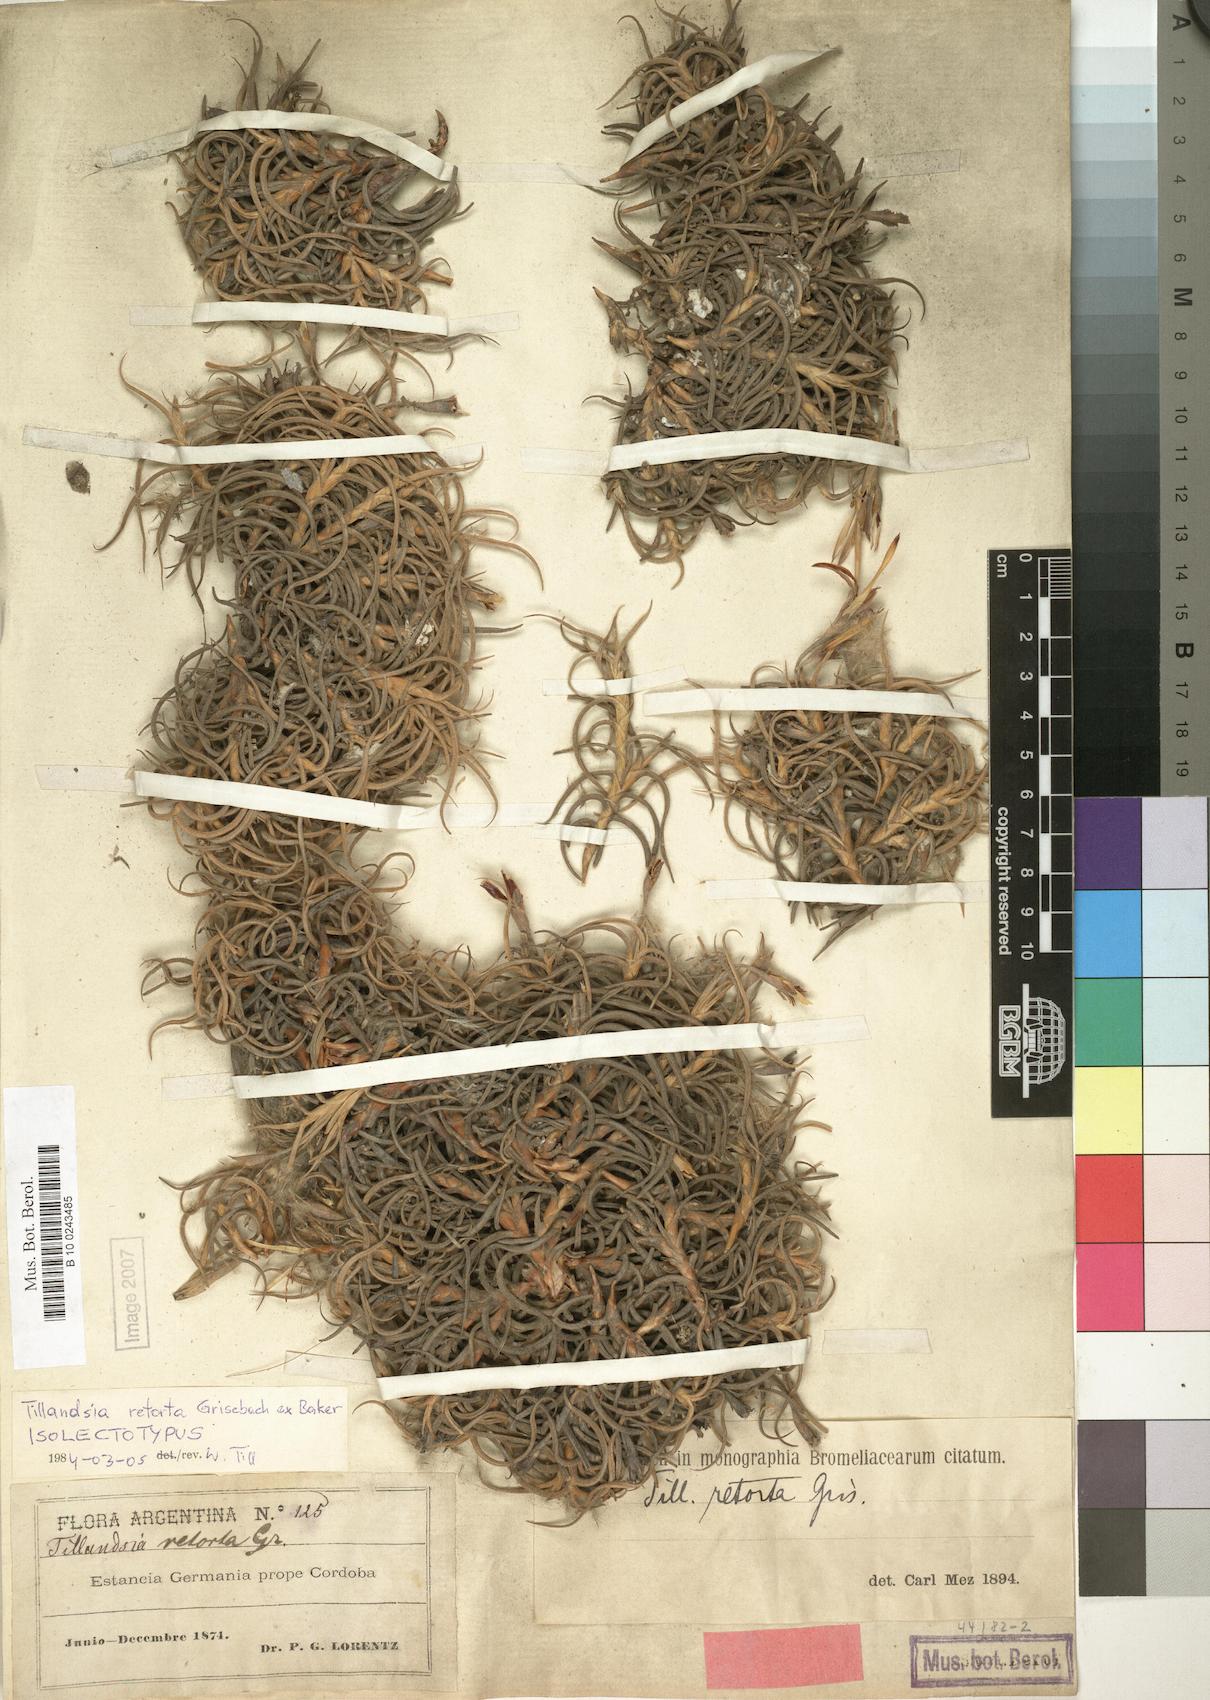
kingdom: Plantae
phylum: Tracheophyta
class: Liliopsida
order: Poales
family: Bromeliaceae
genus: Tillandsia
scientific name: Tillandsia retorta
